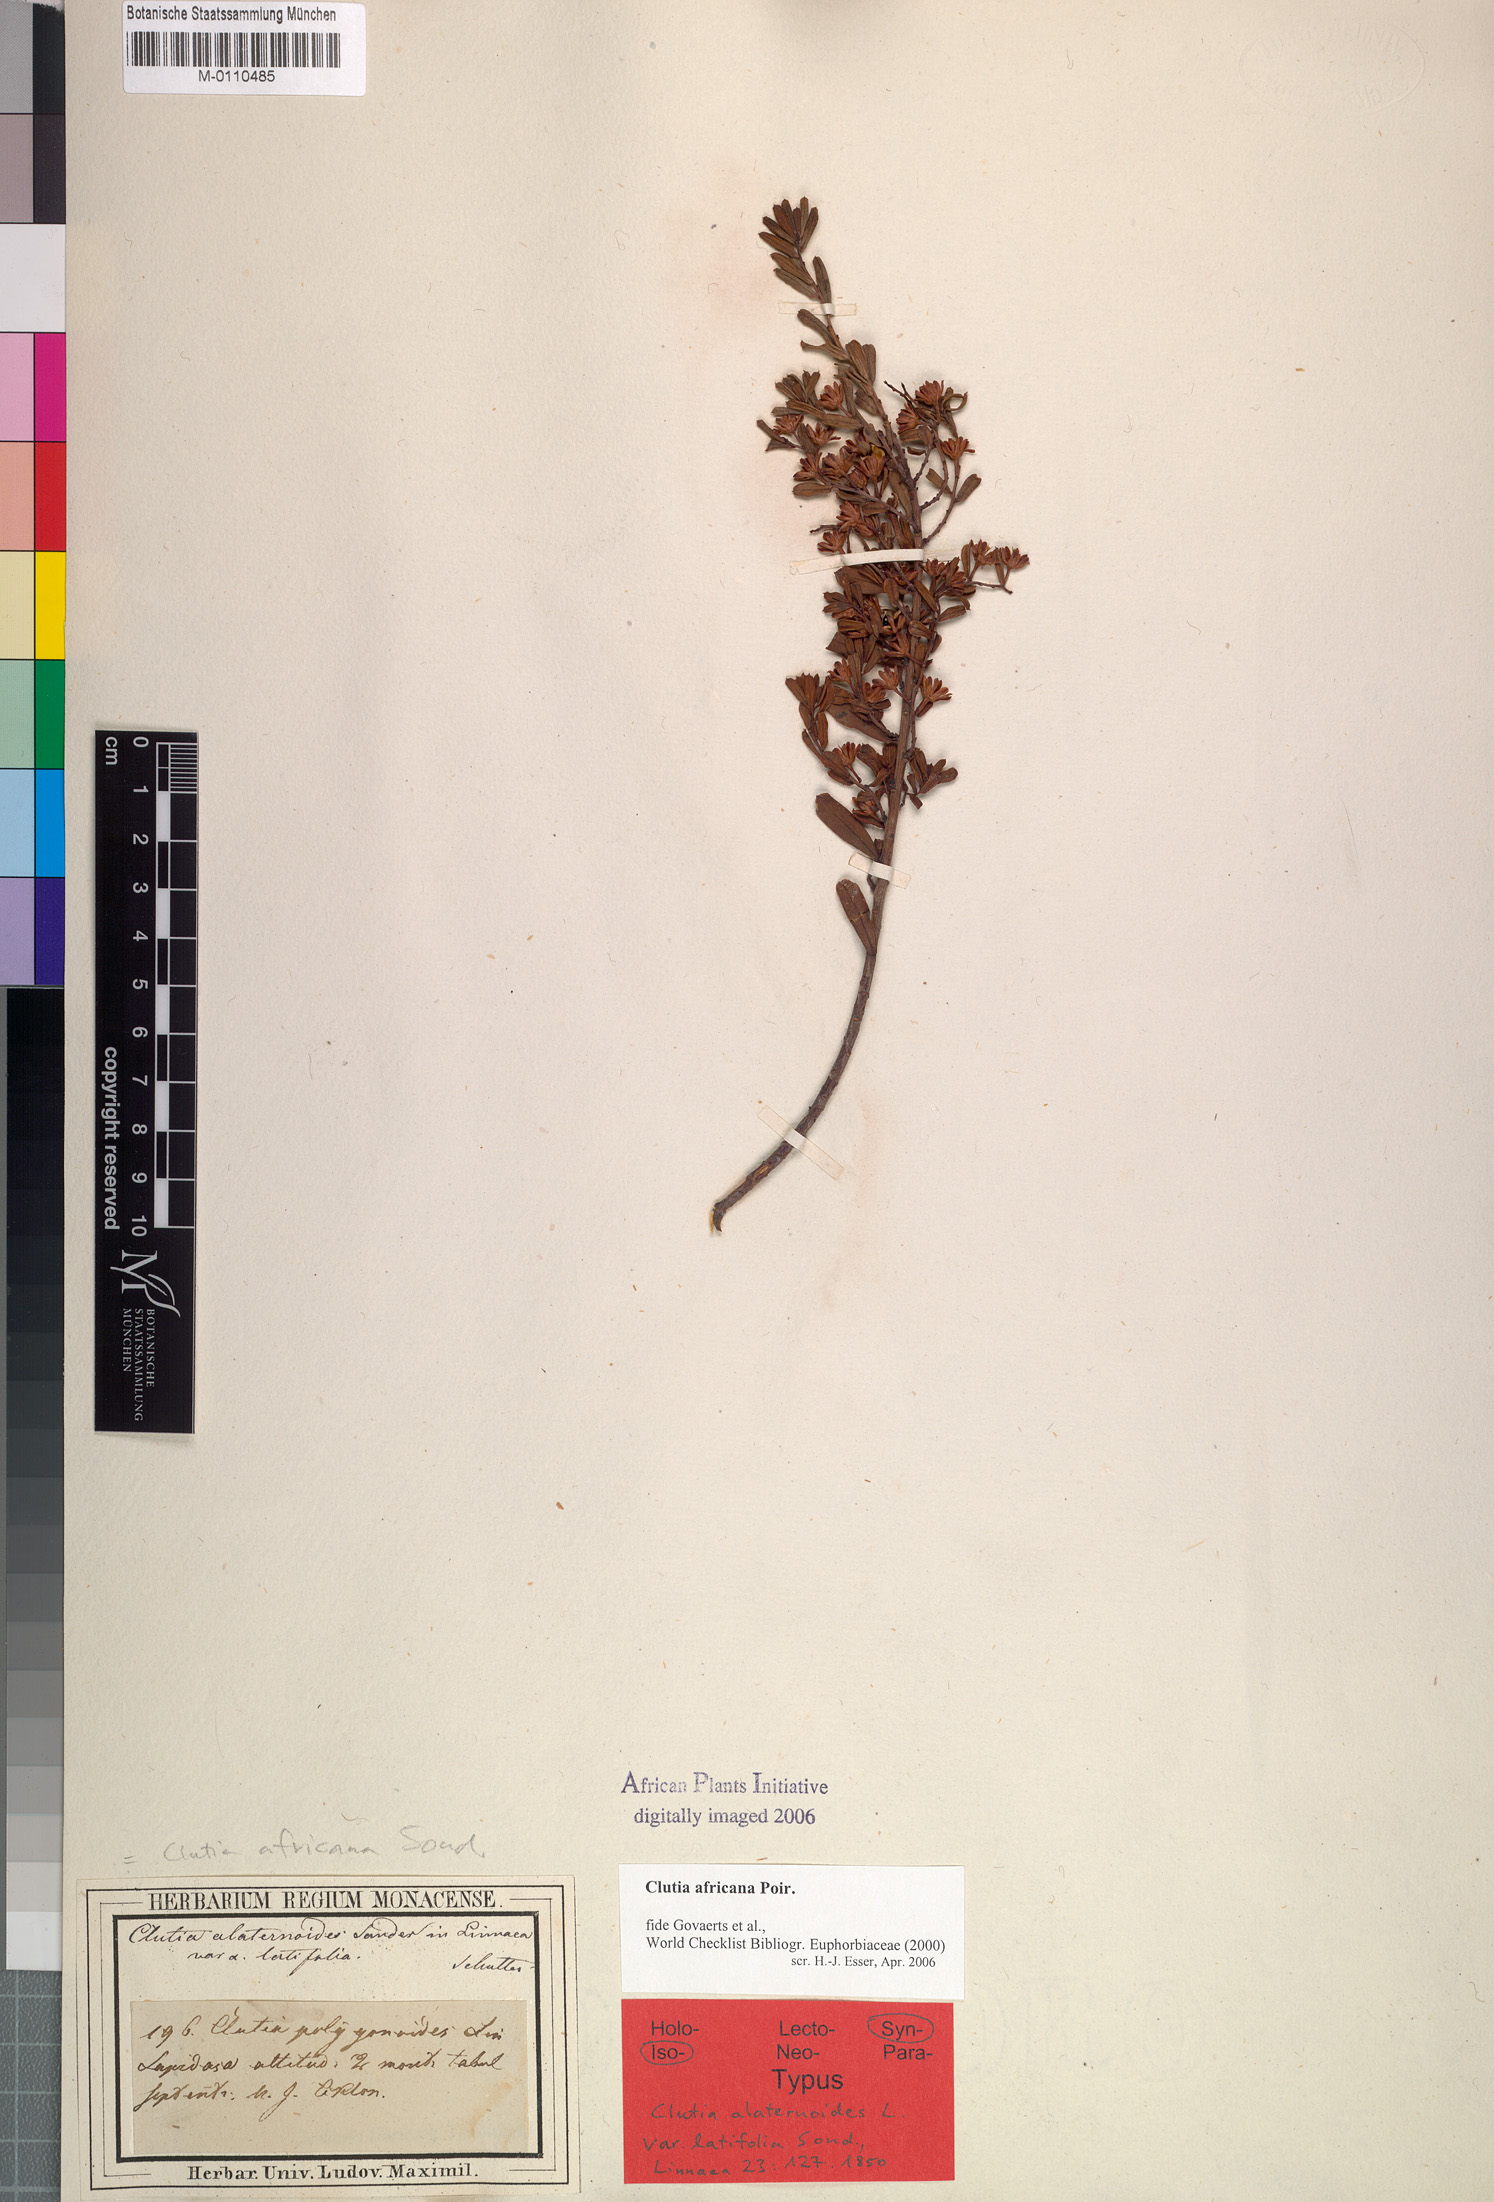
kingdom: Plantae
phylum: Tracheophyta
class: Magnoliopsida
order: Malpighiales
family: Peraceae
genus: Clutia
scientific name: Clutia africana
